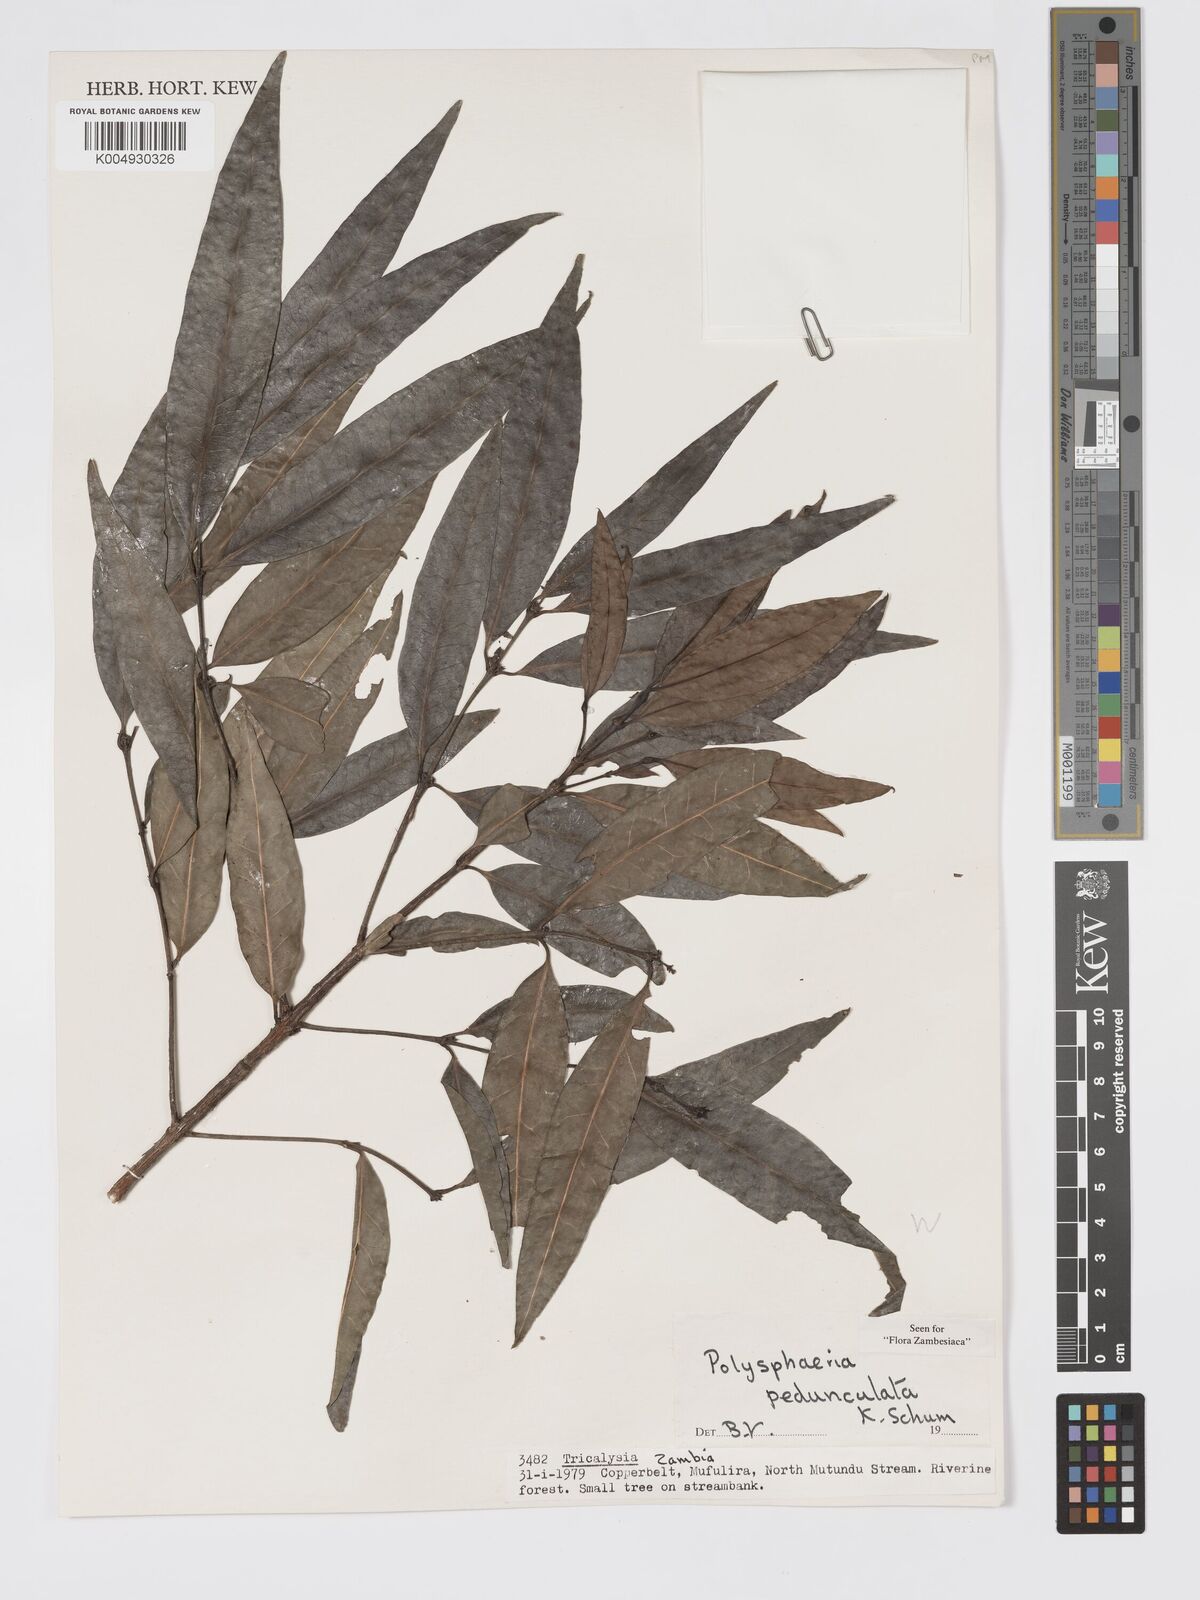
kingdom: Plantae
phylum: Tracheophyta
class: Magnoliopsida
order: Gentianales
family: Rubiaceae
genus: Polysphaeria
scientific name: Polysphaeria pedunculata
